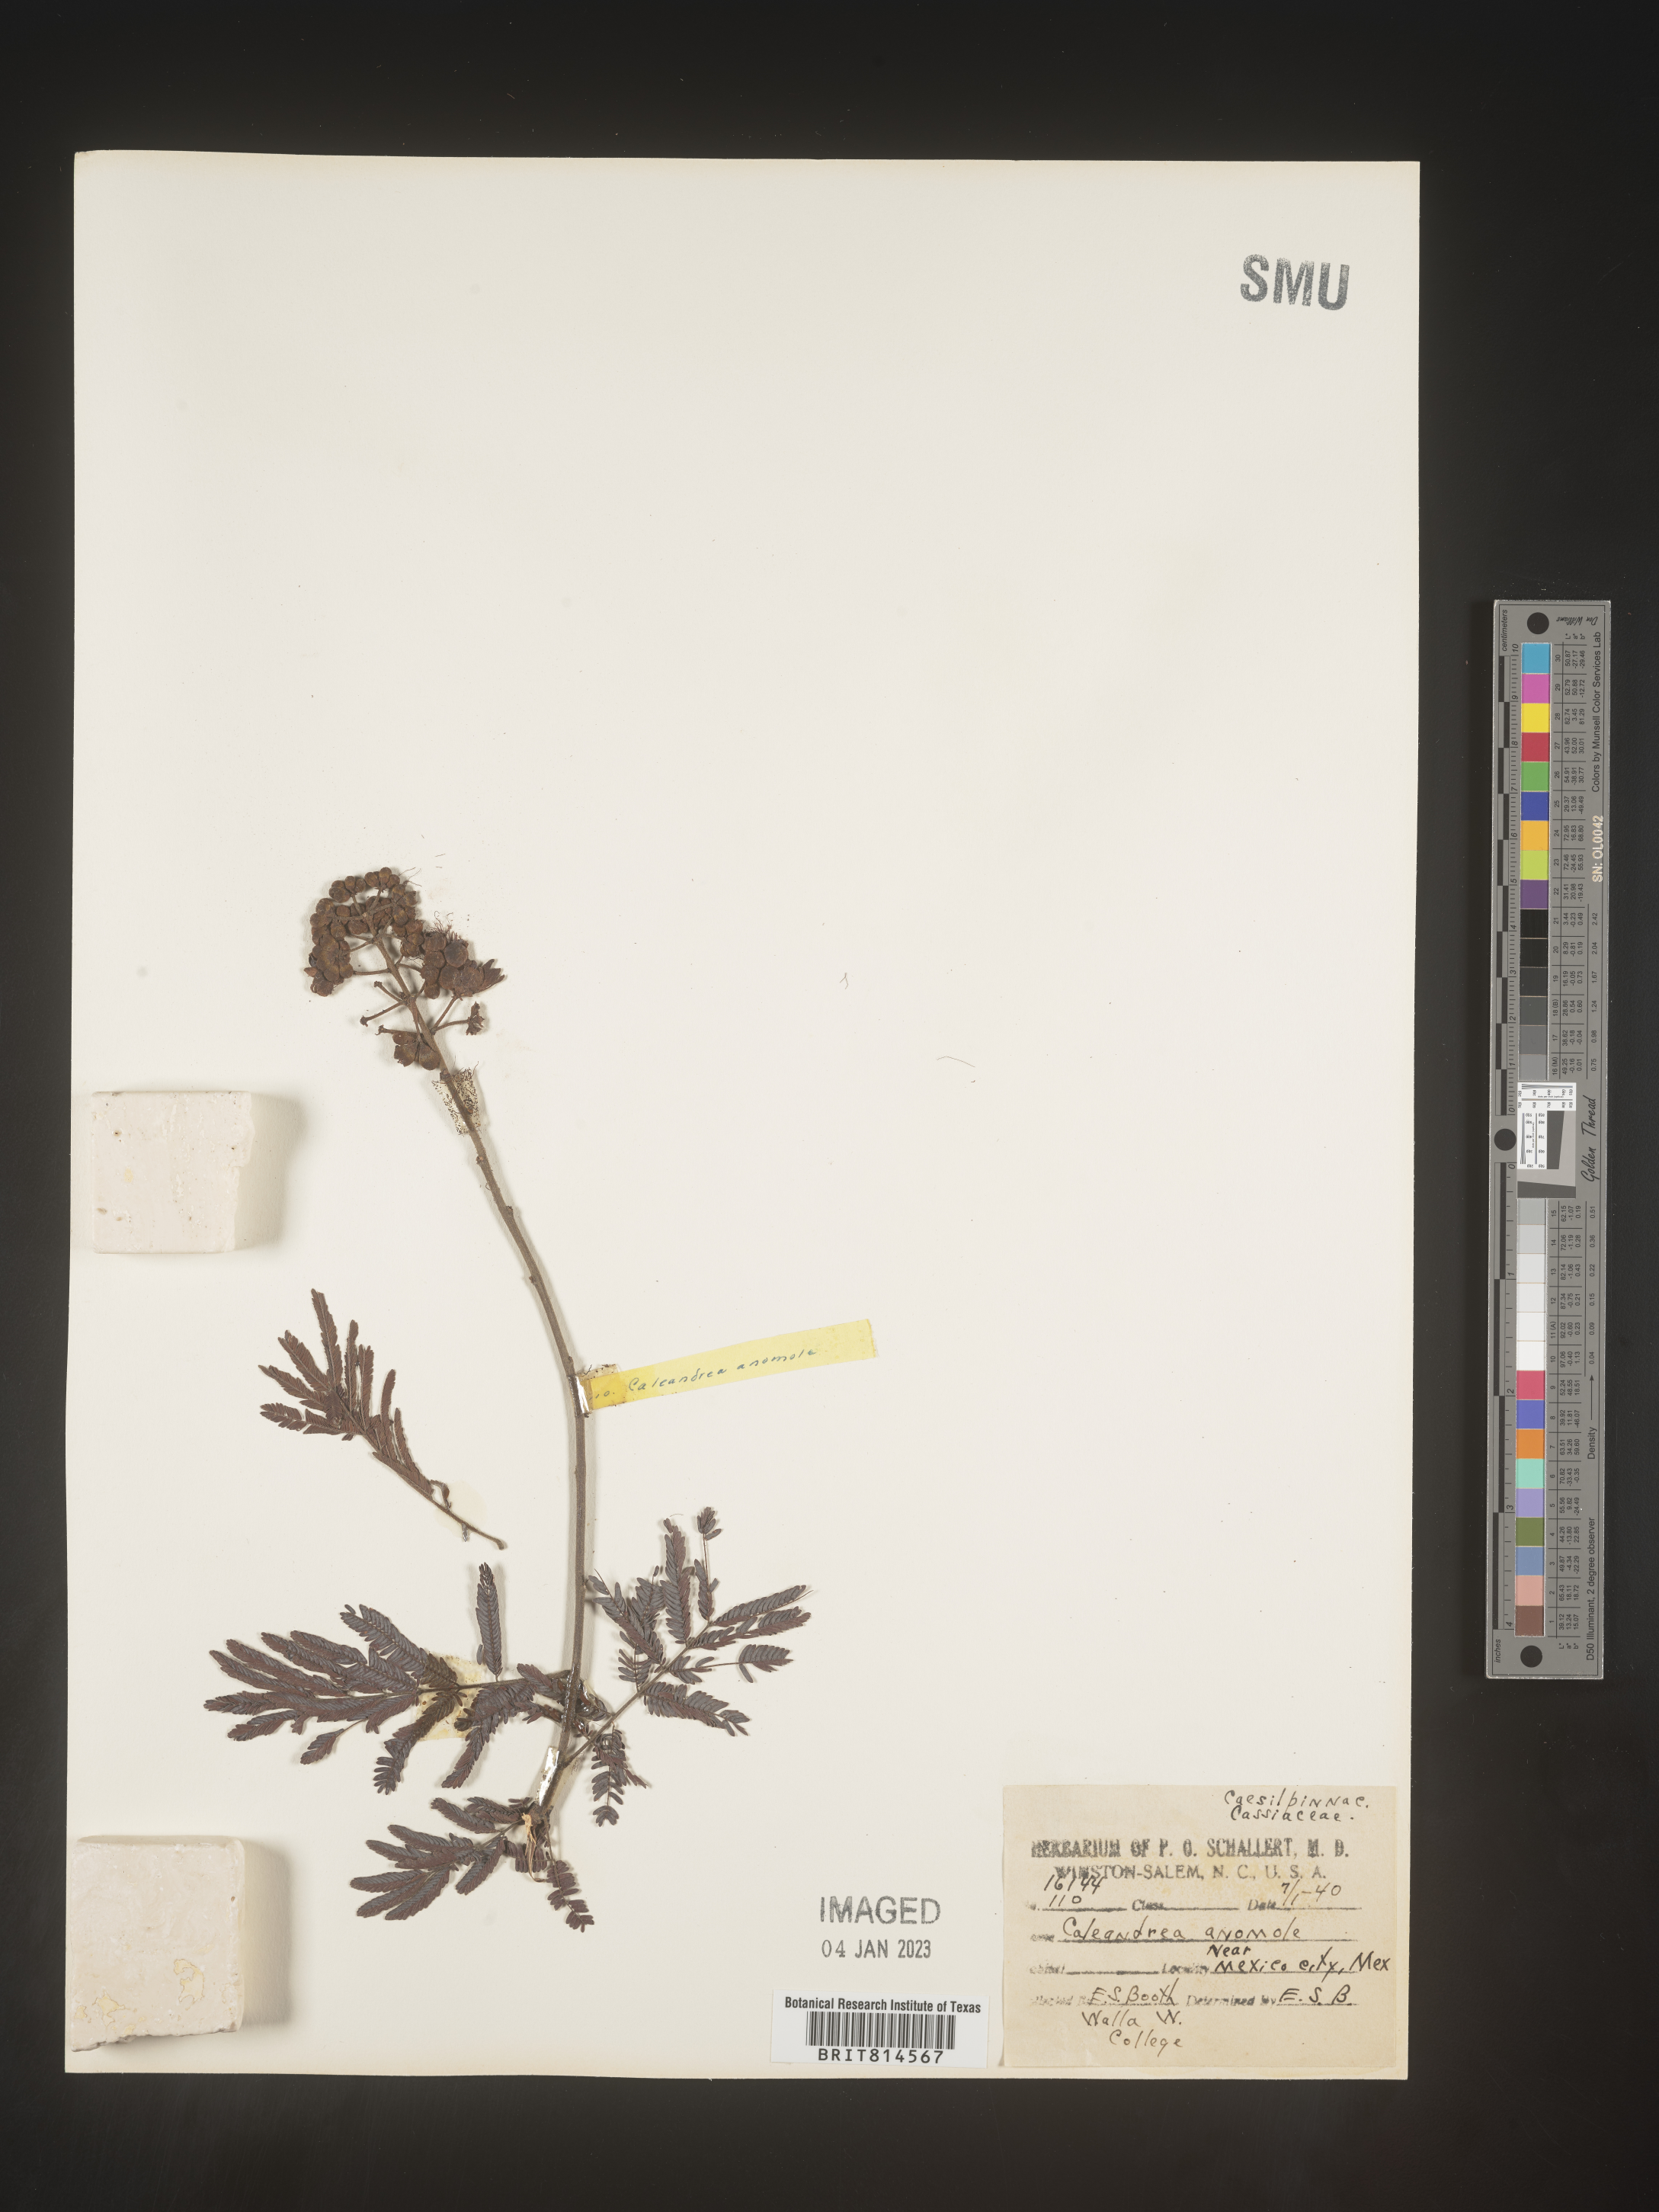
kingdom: Plantae
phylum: Tracheophyta
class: Magnoliopsida
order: Fabales
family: Fabaceae
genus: Calliandra
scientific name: Calliandra
